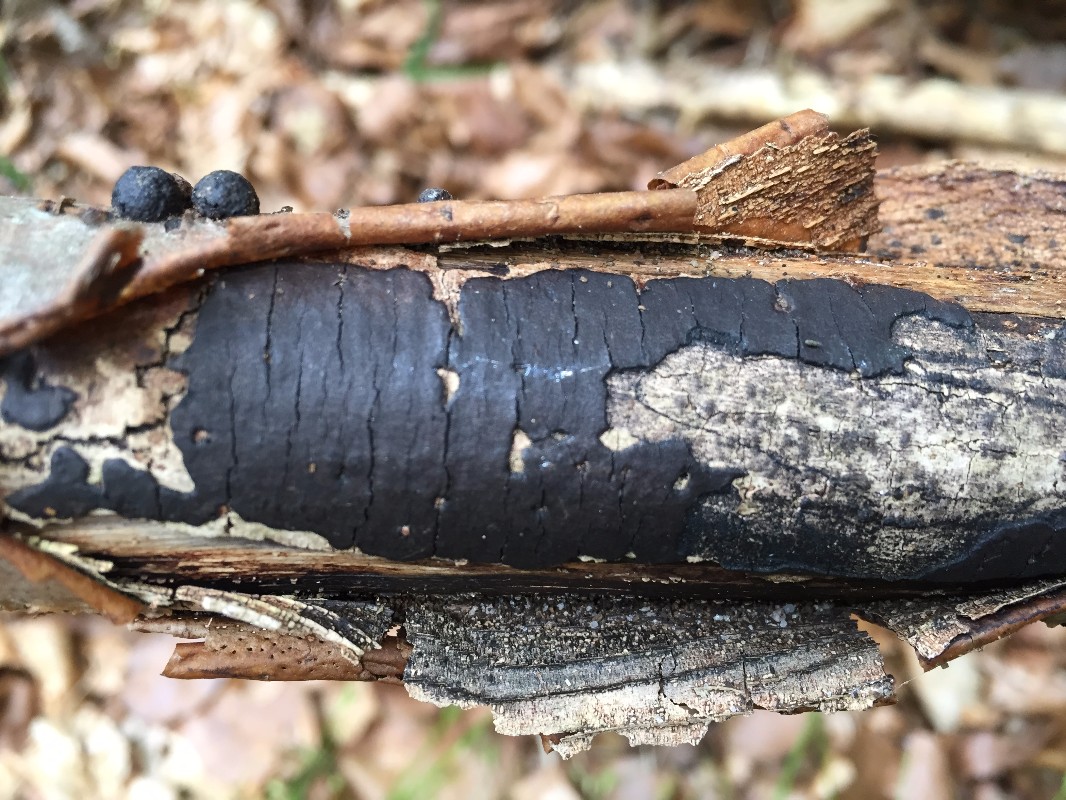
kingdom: Fungi
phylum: Ascomycota
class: Sordariomycetes
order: Xylariales
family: Diatrypaceae
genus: Diatrype
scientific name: Diatrype decorticata
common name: barksprænger-kulskorpe
